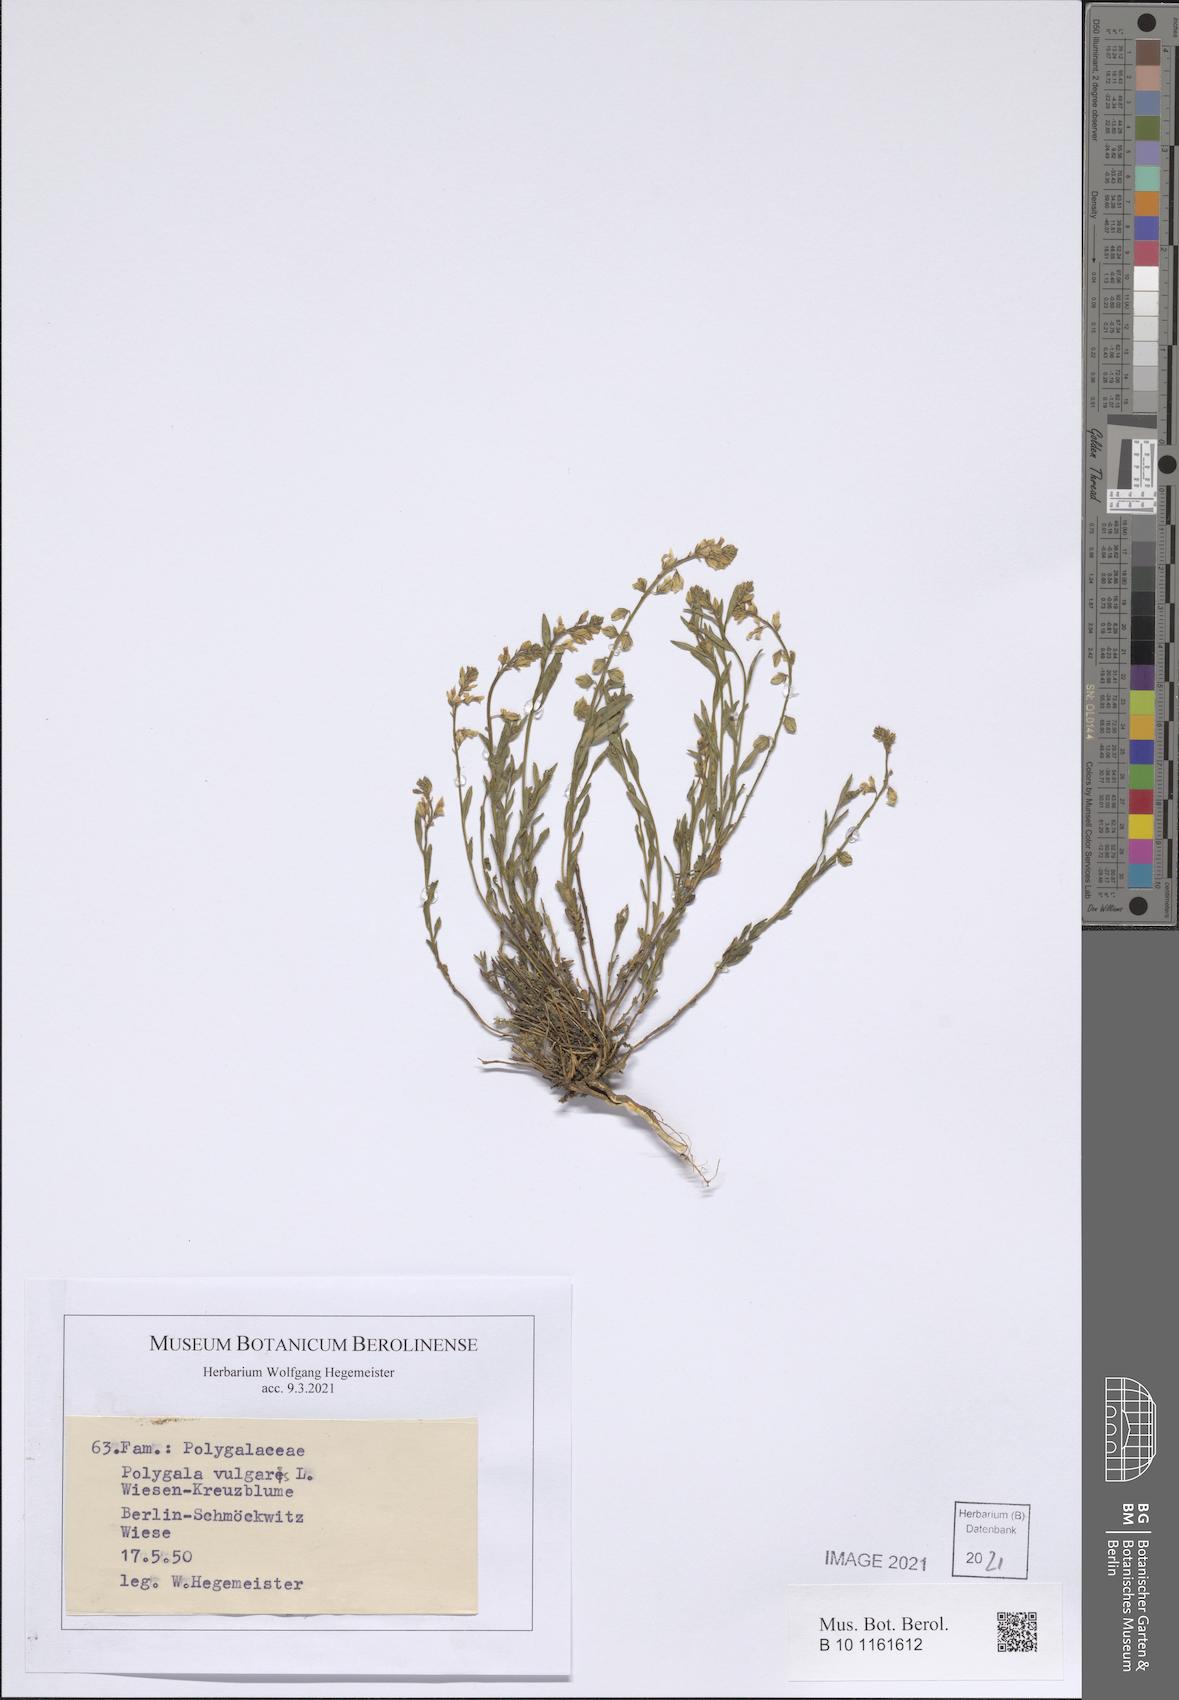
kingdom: Plantae
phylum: Tracheophyta
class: Magnoliopsida
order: Fabales
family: Polygalaceae
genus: Polygala
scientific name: Polygala vulgaris
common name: Common milkwort
